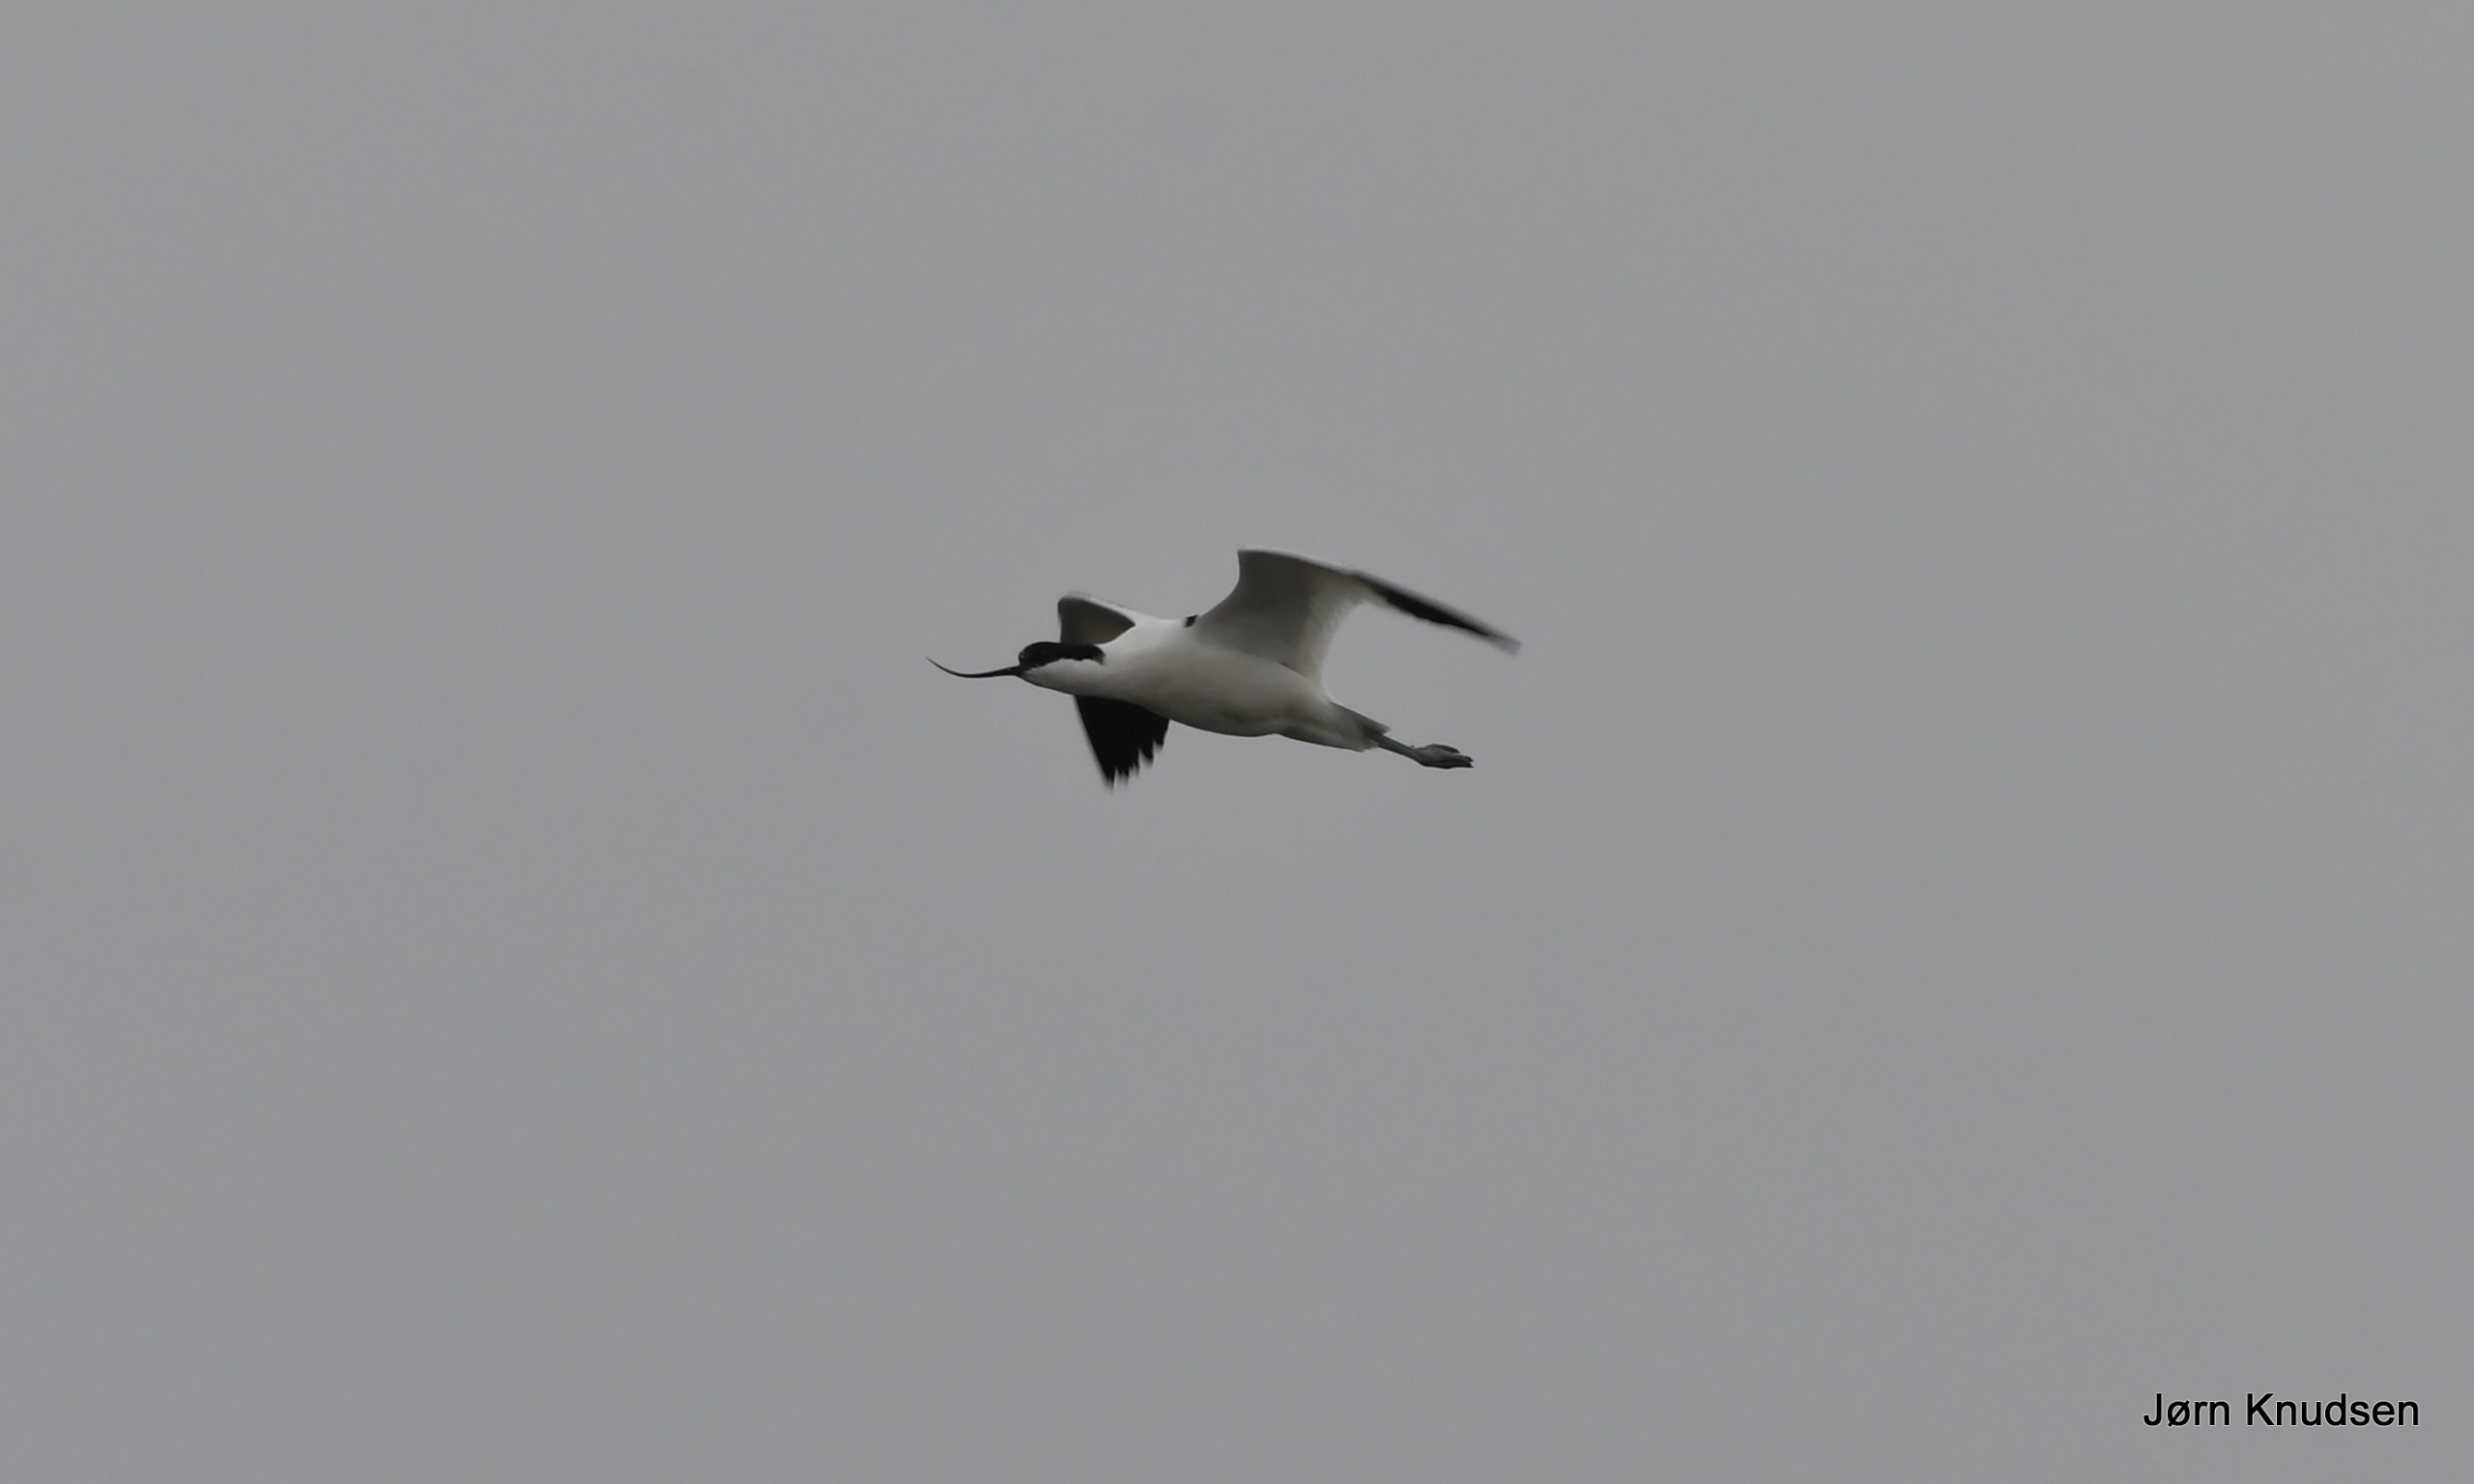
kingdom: Animalia
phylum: Chordata
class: Aves
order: Charadriiformes
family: Recurvirostridae
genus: Recurvirostra
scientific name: Recurvirostra avosetta
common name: Klyde
